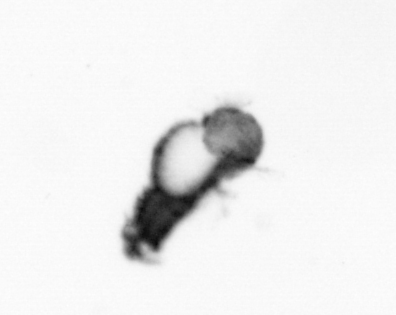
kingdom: Animalia
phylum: Annelida
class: Polychaeta
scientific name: Polychaeta
